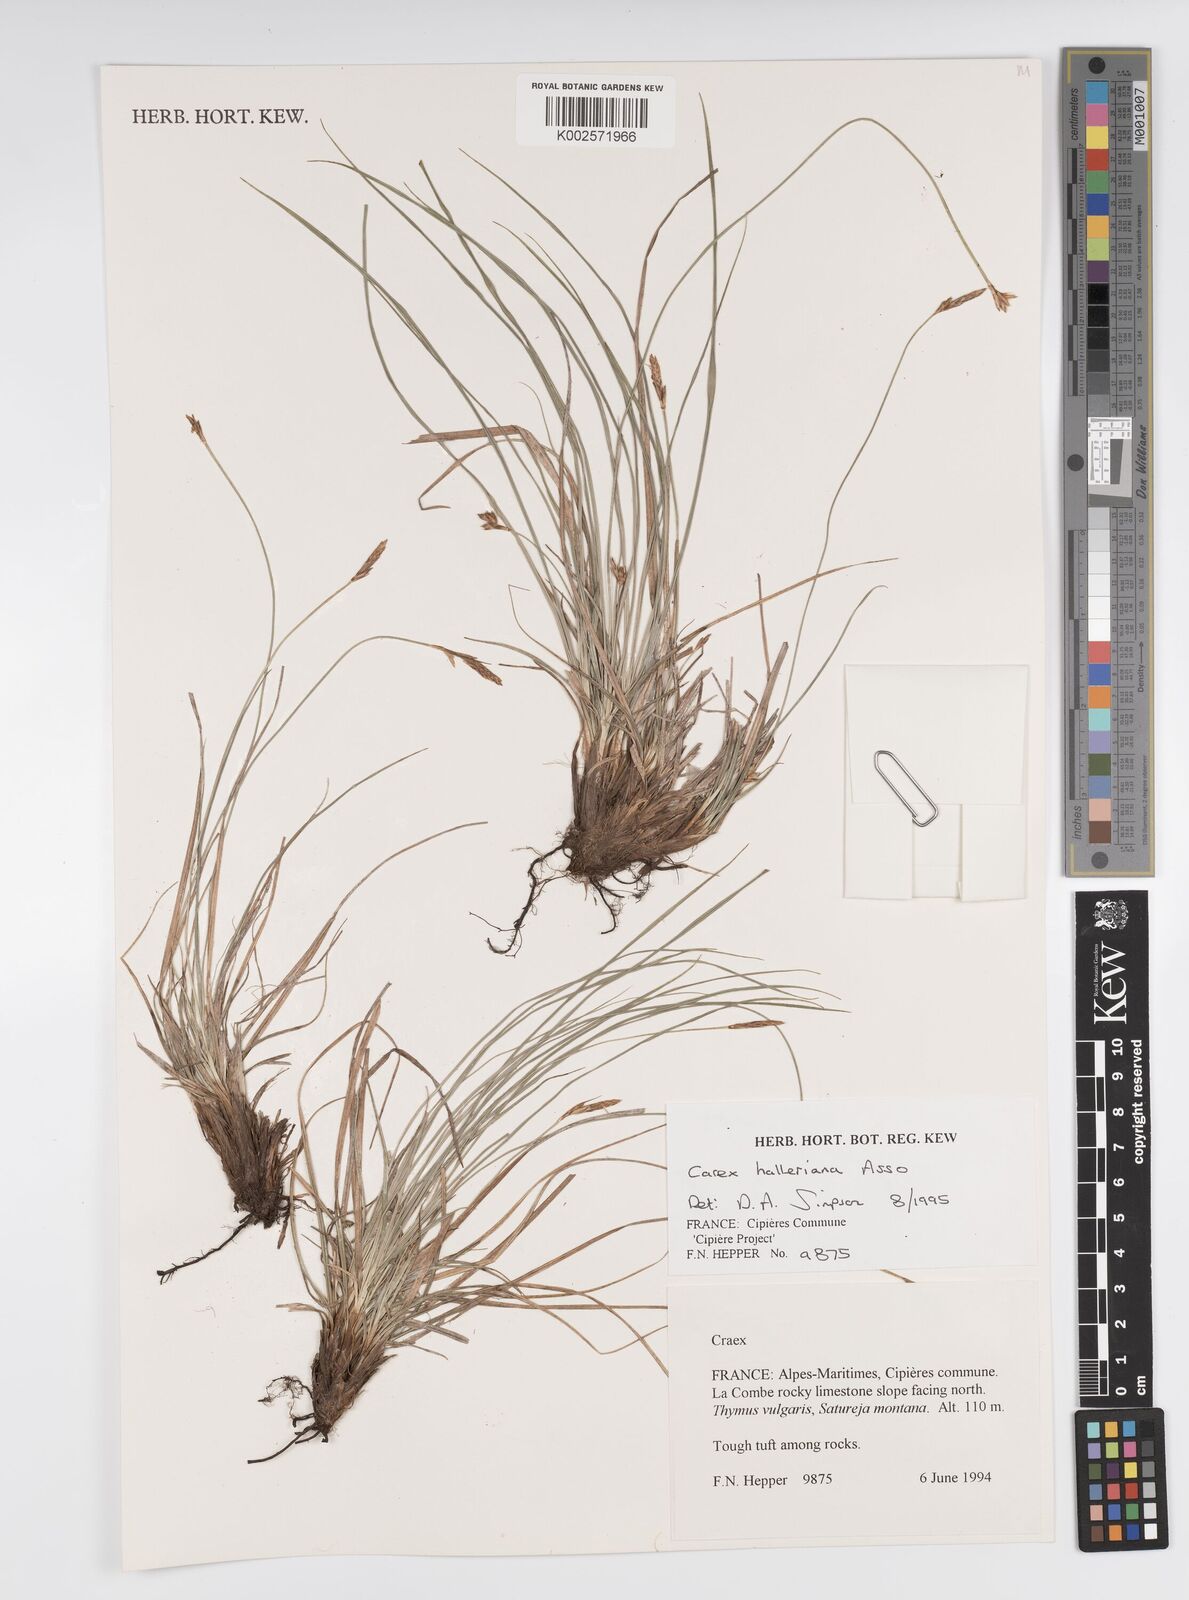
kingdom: Plantae
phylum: Tracheophyta
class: Liliopsida
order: Poales
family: Cyperaceae
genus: Carex
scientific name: Carex halleriana
